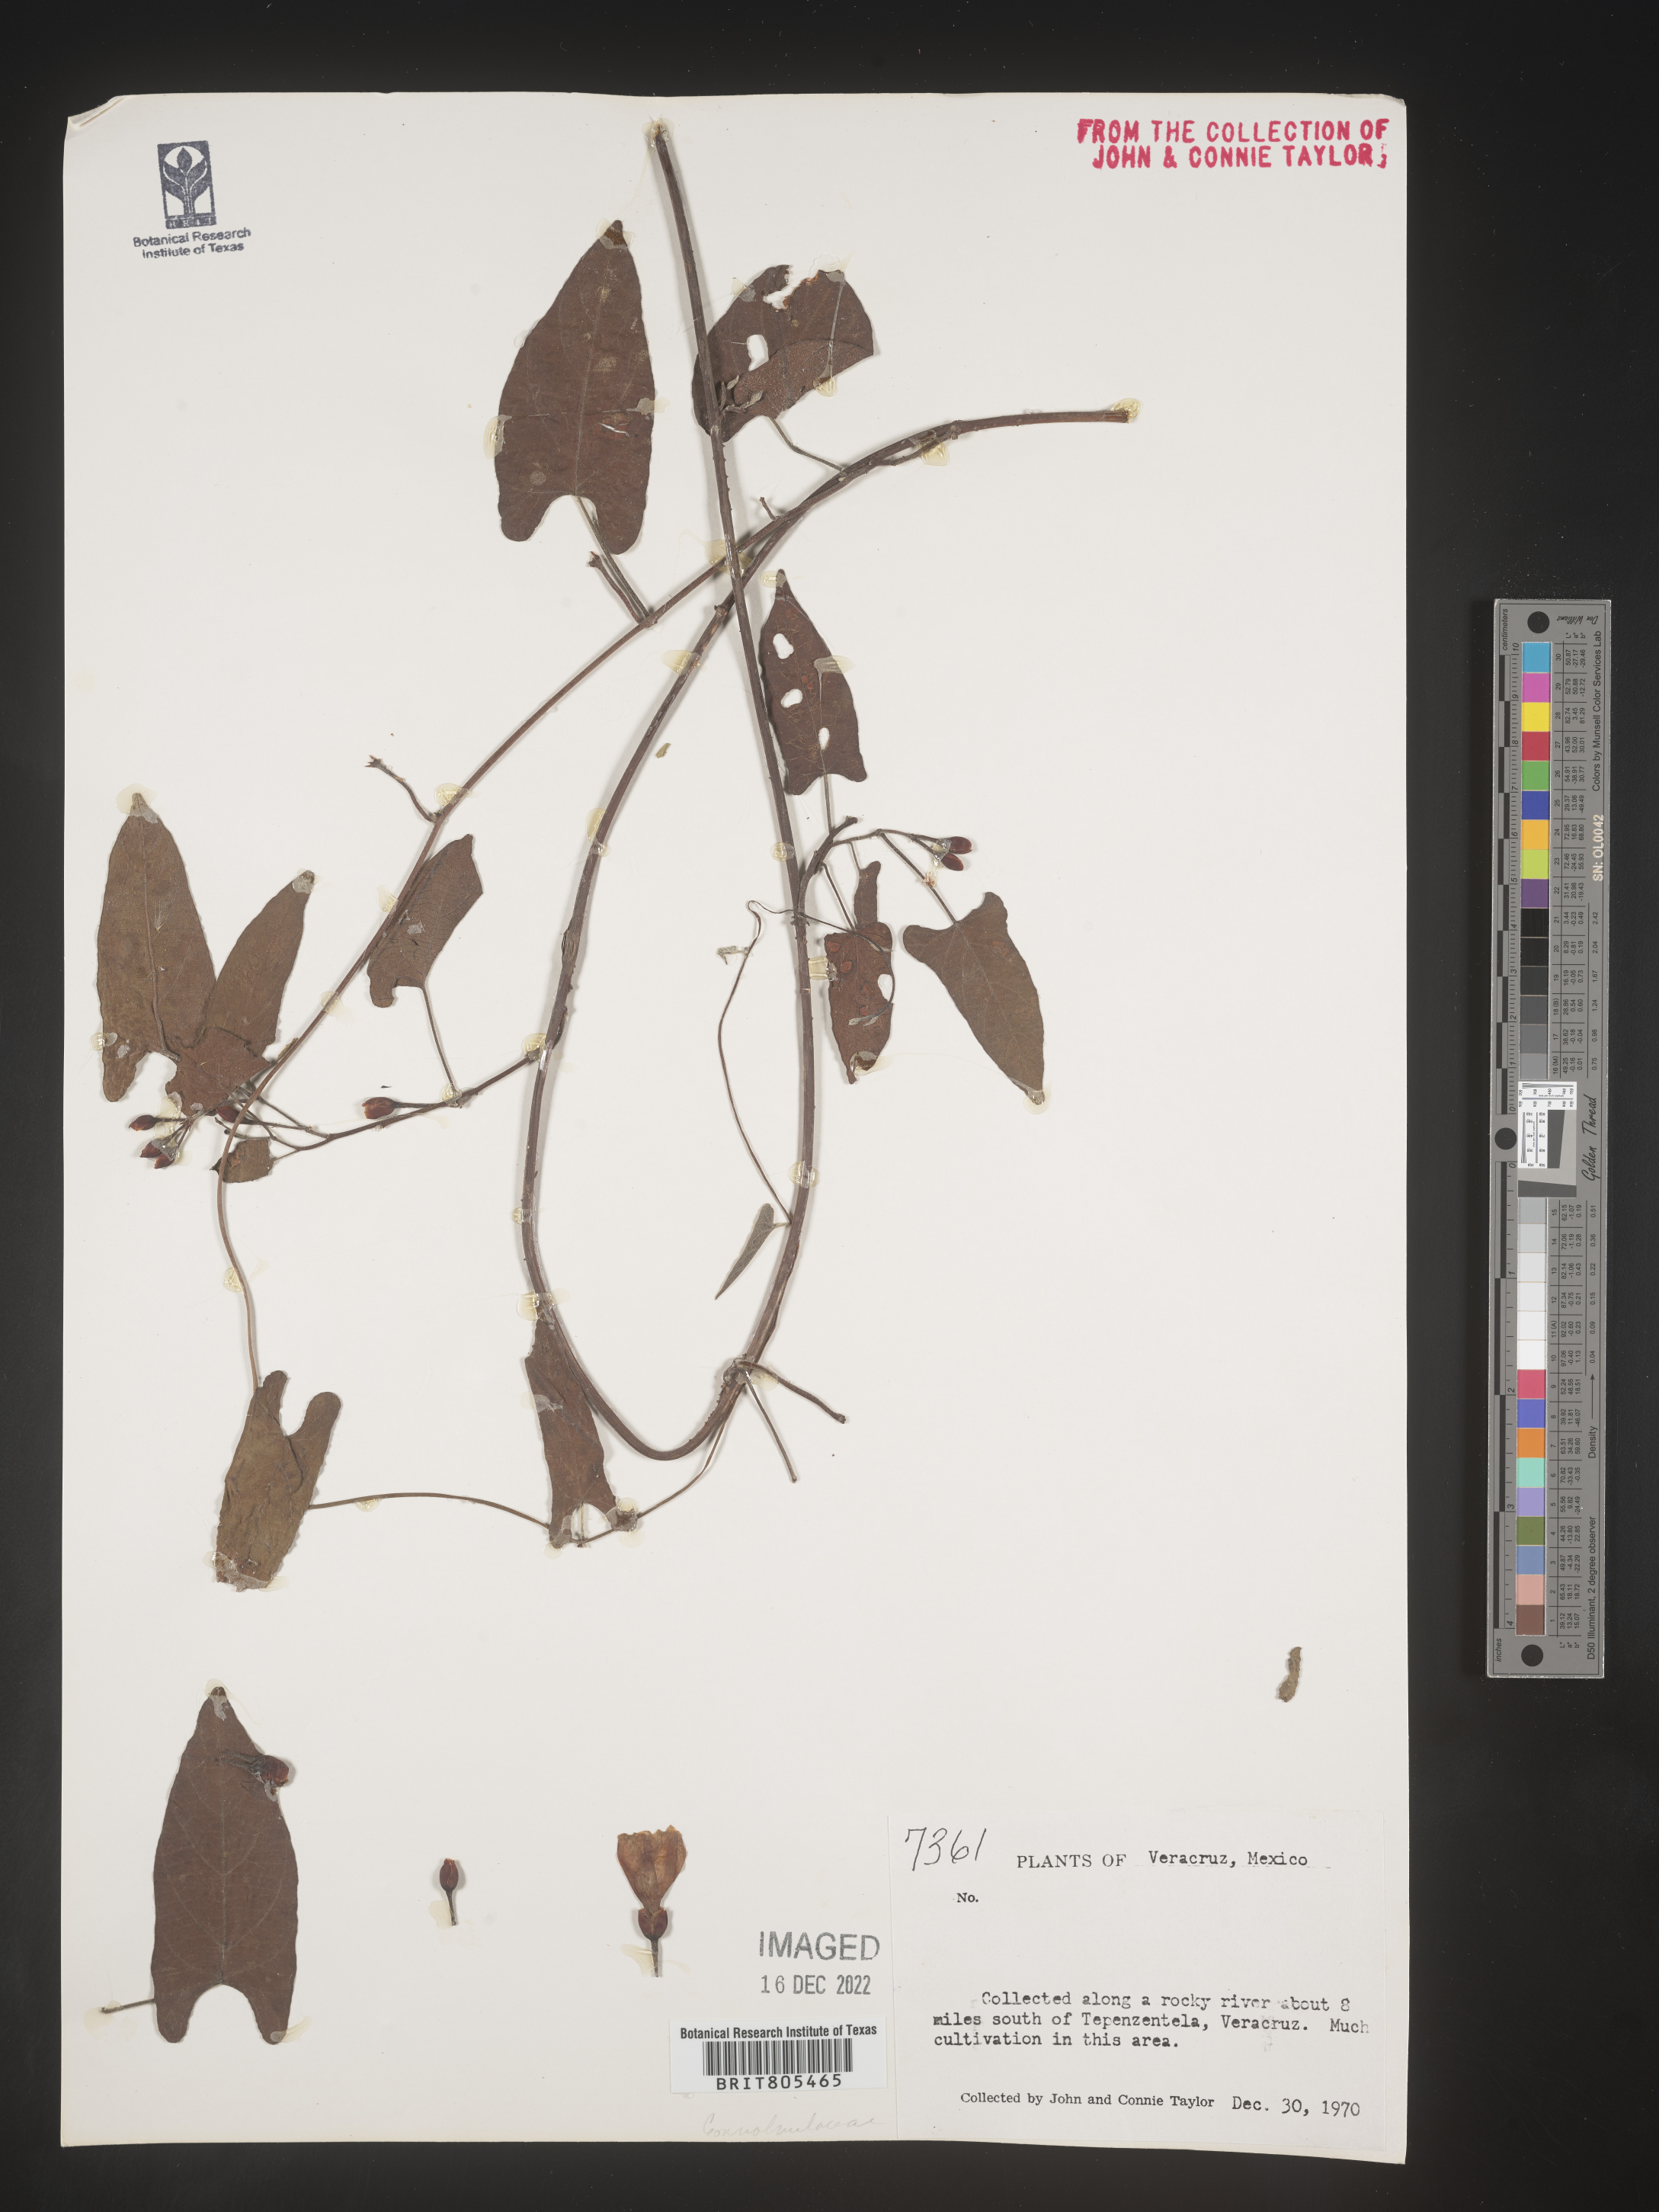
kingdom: Plantae
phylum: Tracheophyta
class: Magnoliopsida
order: Solanales
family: Convolvulaceae
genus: Ipomoea
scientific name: Ipomoea
